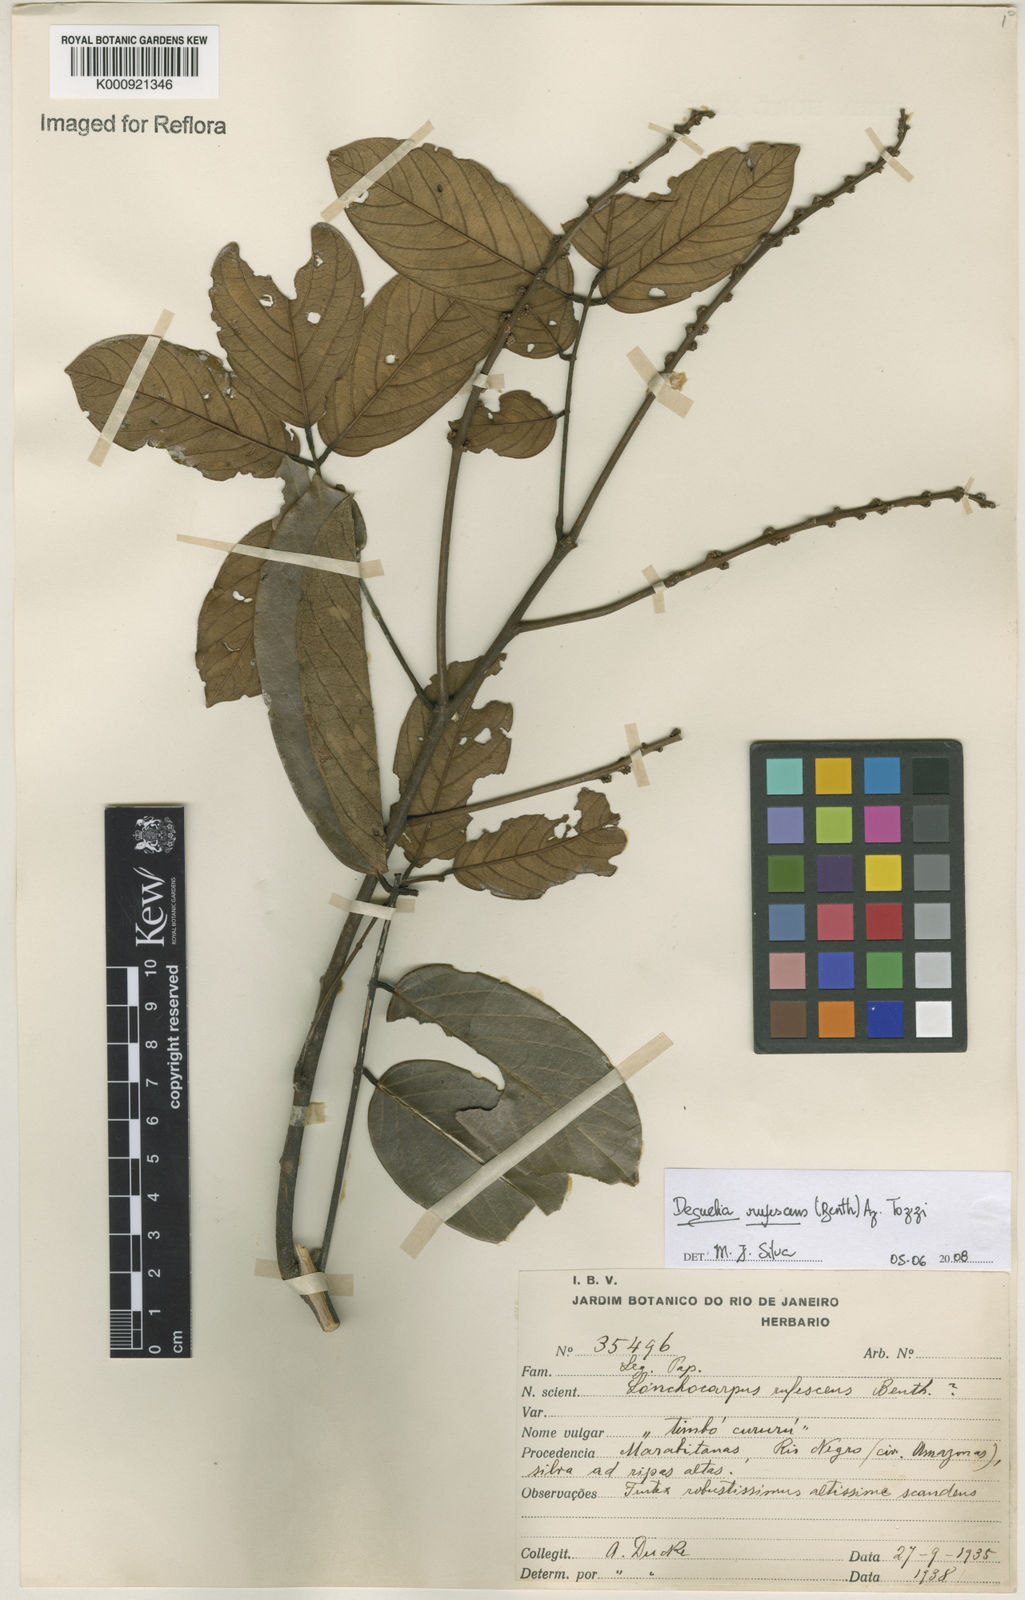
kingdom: Plantae
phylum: Tracheophyta
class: Magnoliopsida
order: Fabales
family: Fabaceae
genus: Deguelia
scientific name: Deguelia
